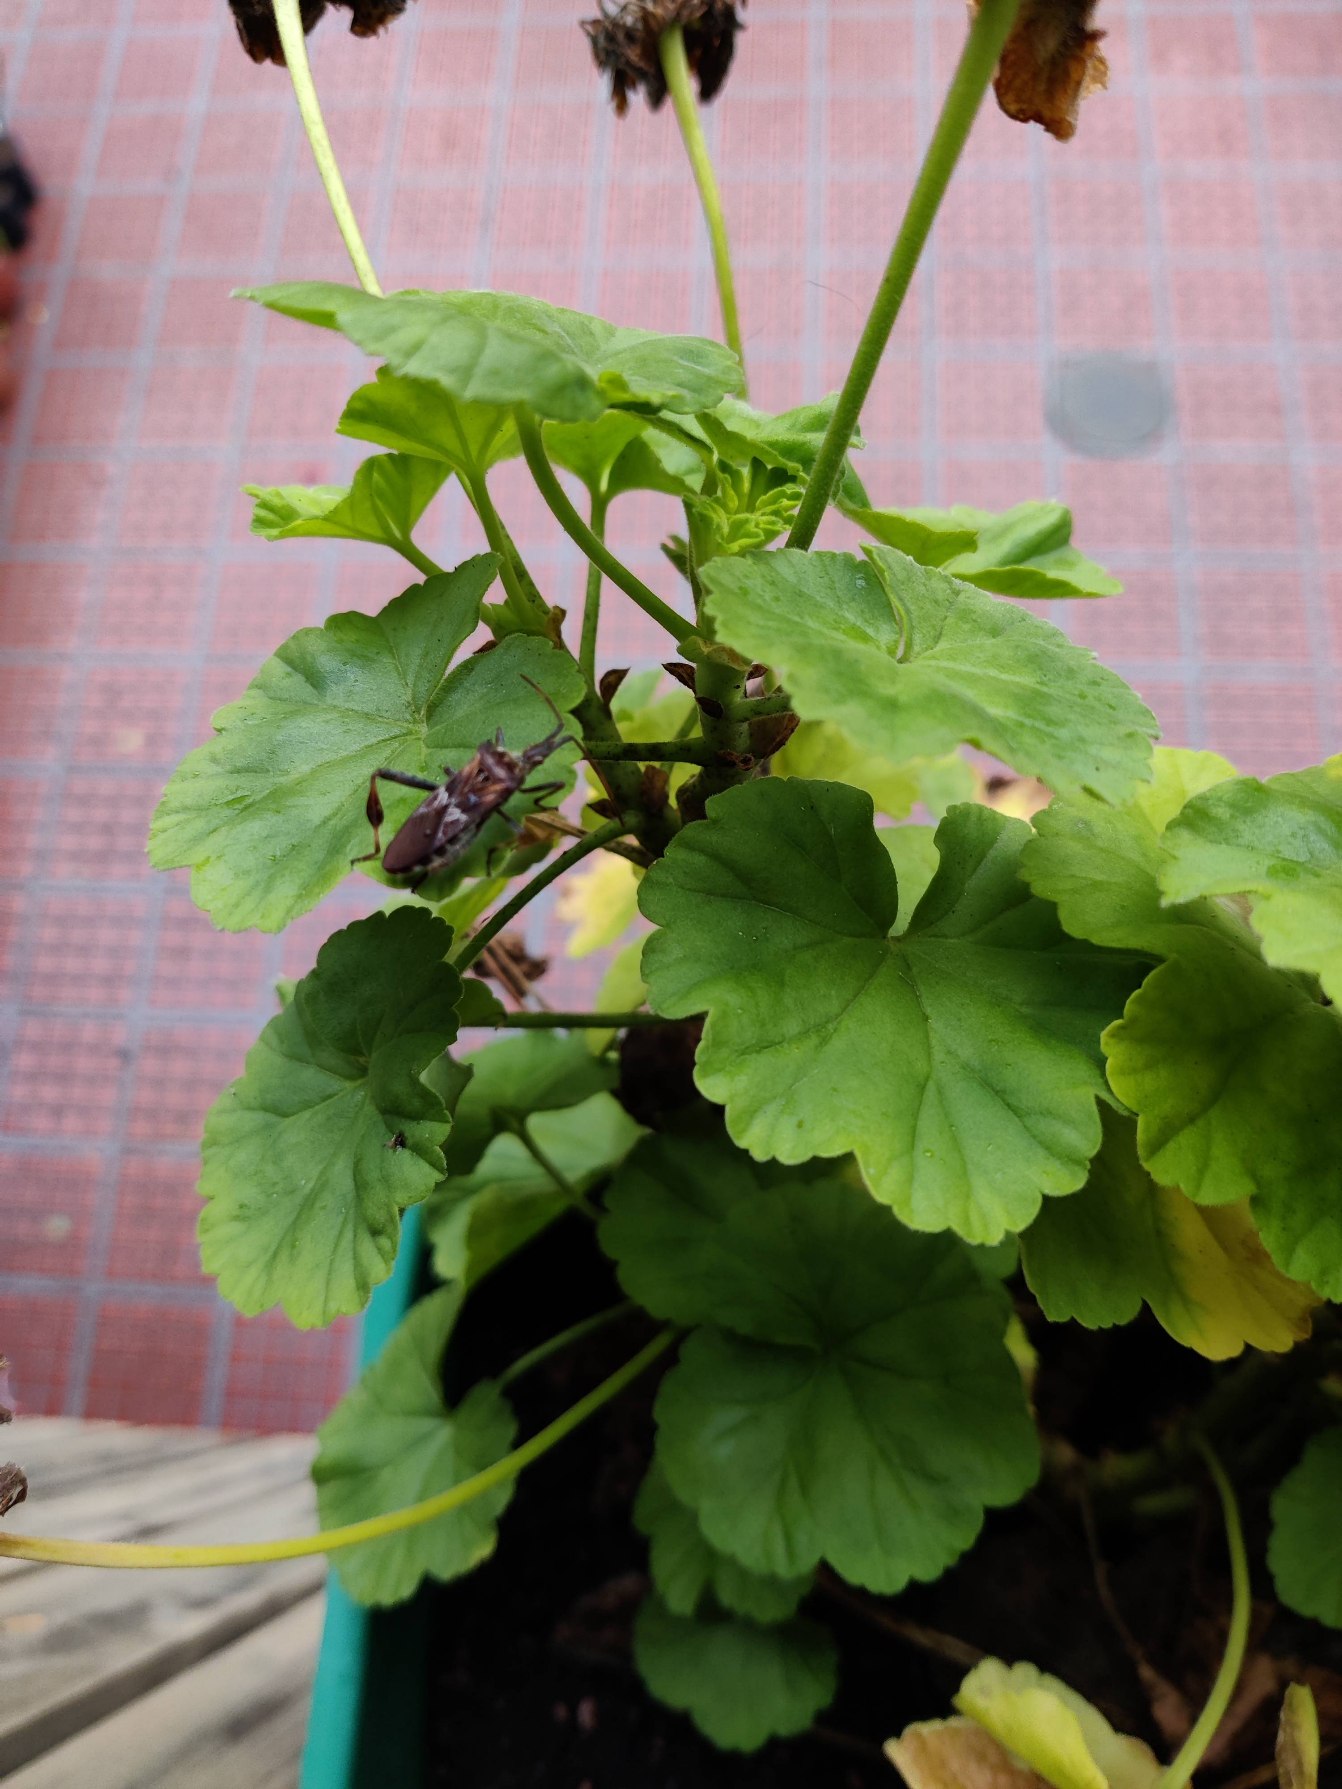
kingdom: Animalia
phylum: Arthropoda
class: Insecta
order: Hemiptera
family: Coreidae
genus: Leptoglossus
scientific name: Leptoglossus occidentalis
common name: Amerikansk fyrretæge
